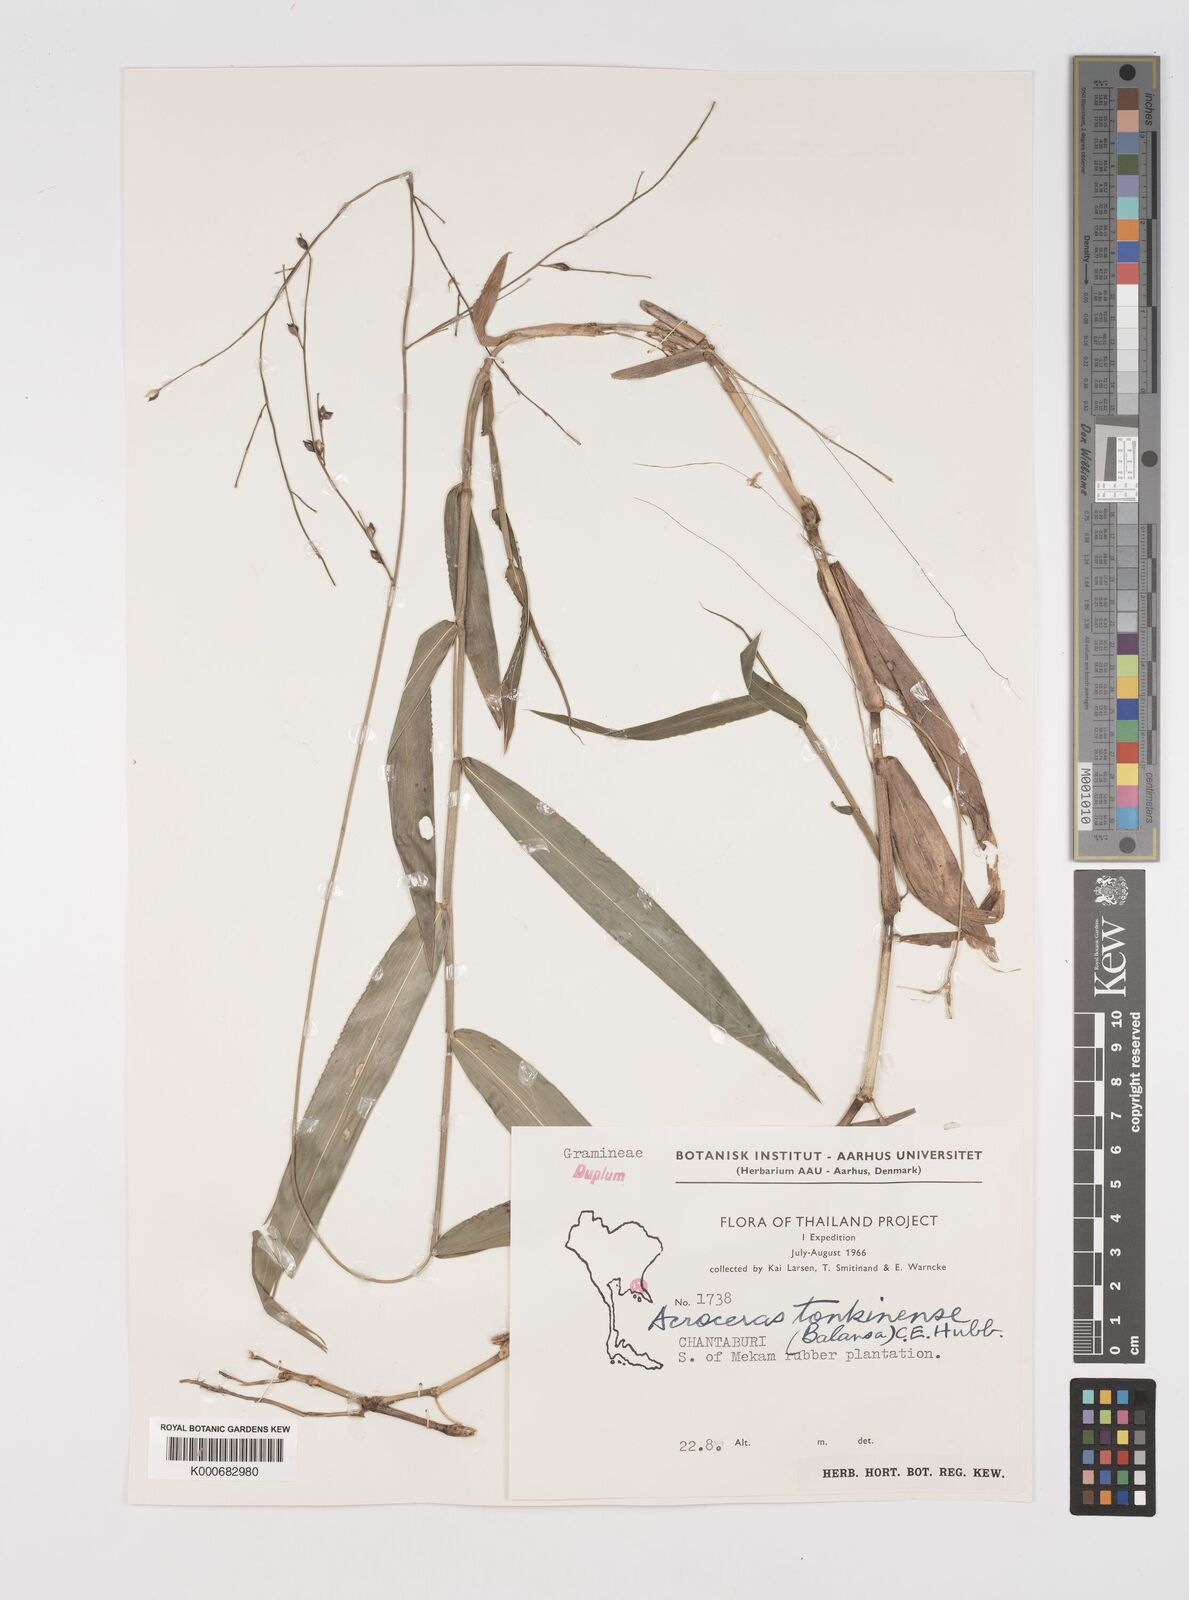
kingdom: Plantae
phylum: Tracheophyta
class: Liliopsida
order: Poales
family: Poaceae
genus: Acroceras
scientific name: Acroceras
